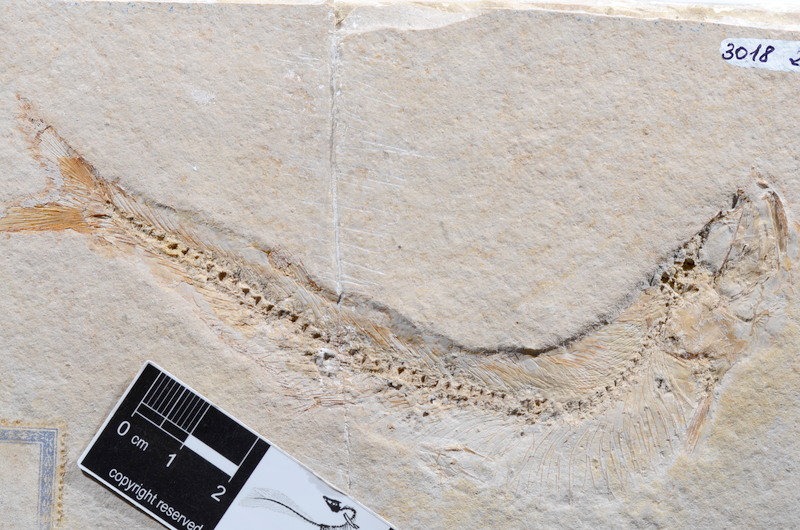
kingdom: Animalia
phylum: Chordata
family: Allothrissopidae
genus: Allothrissops
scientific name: Allothrissops mesogaster
